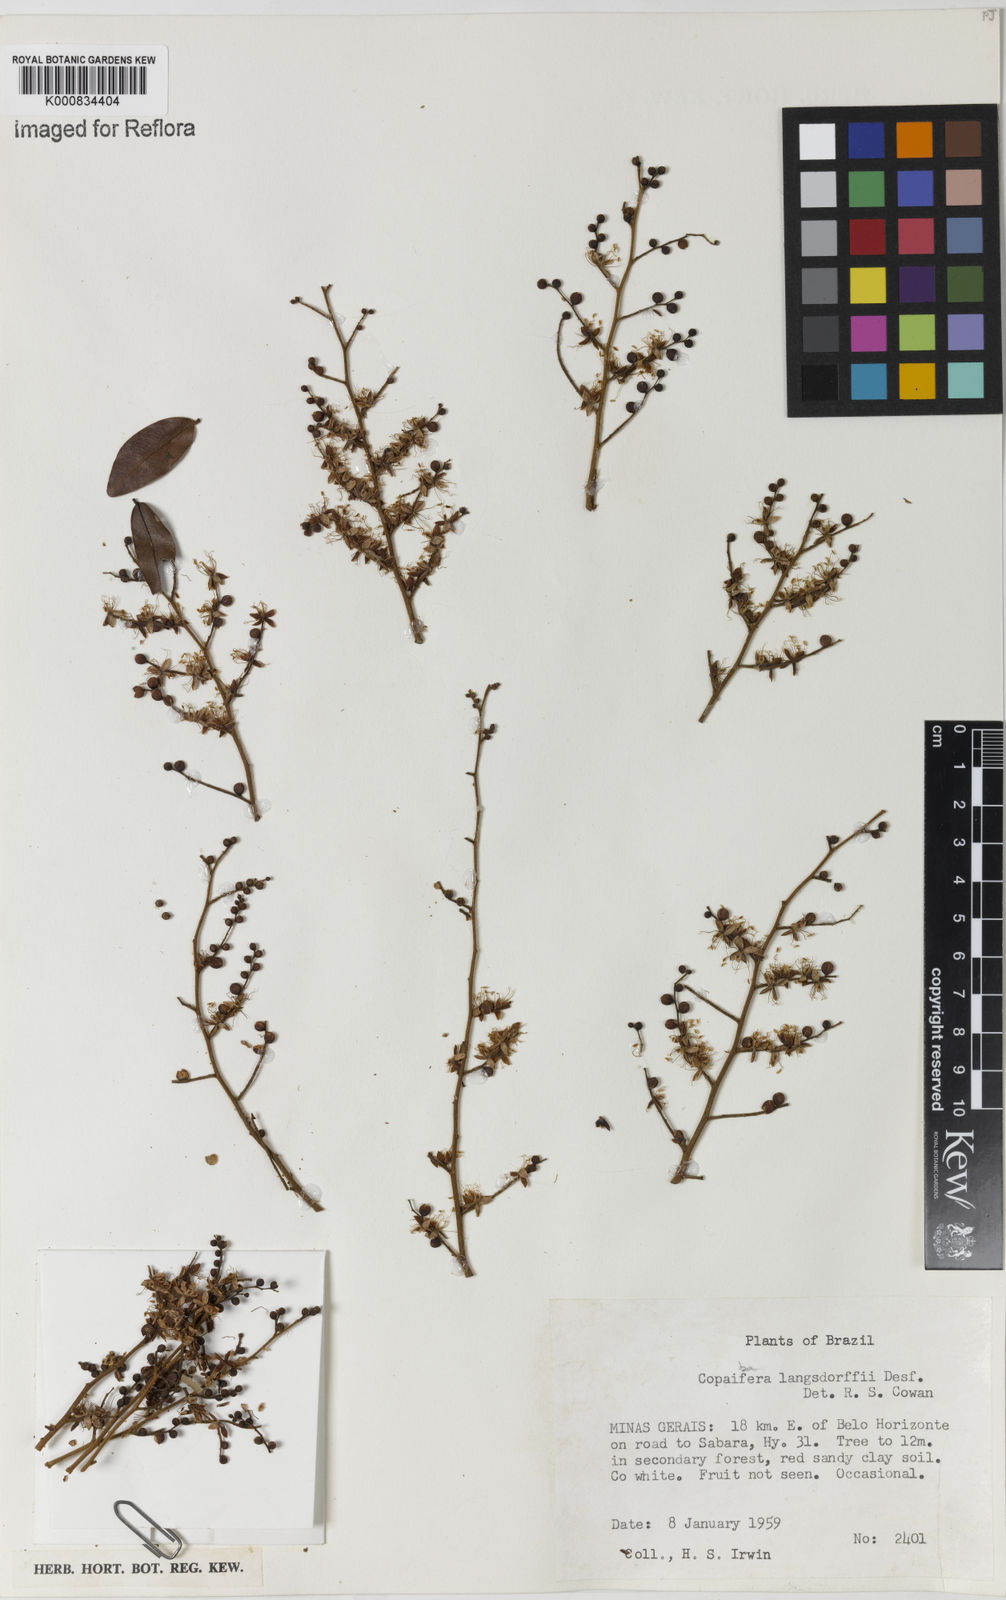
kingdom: Plantae
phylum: Tracheophyta
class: Magnoliopsida
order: Fabales
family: Fabaceae
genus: Copaifera
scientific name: Copaifera langsdorffii
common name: Brazilian diesel tree
